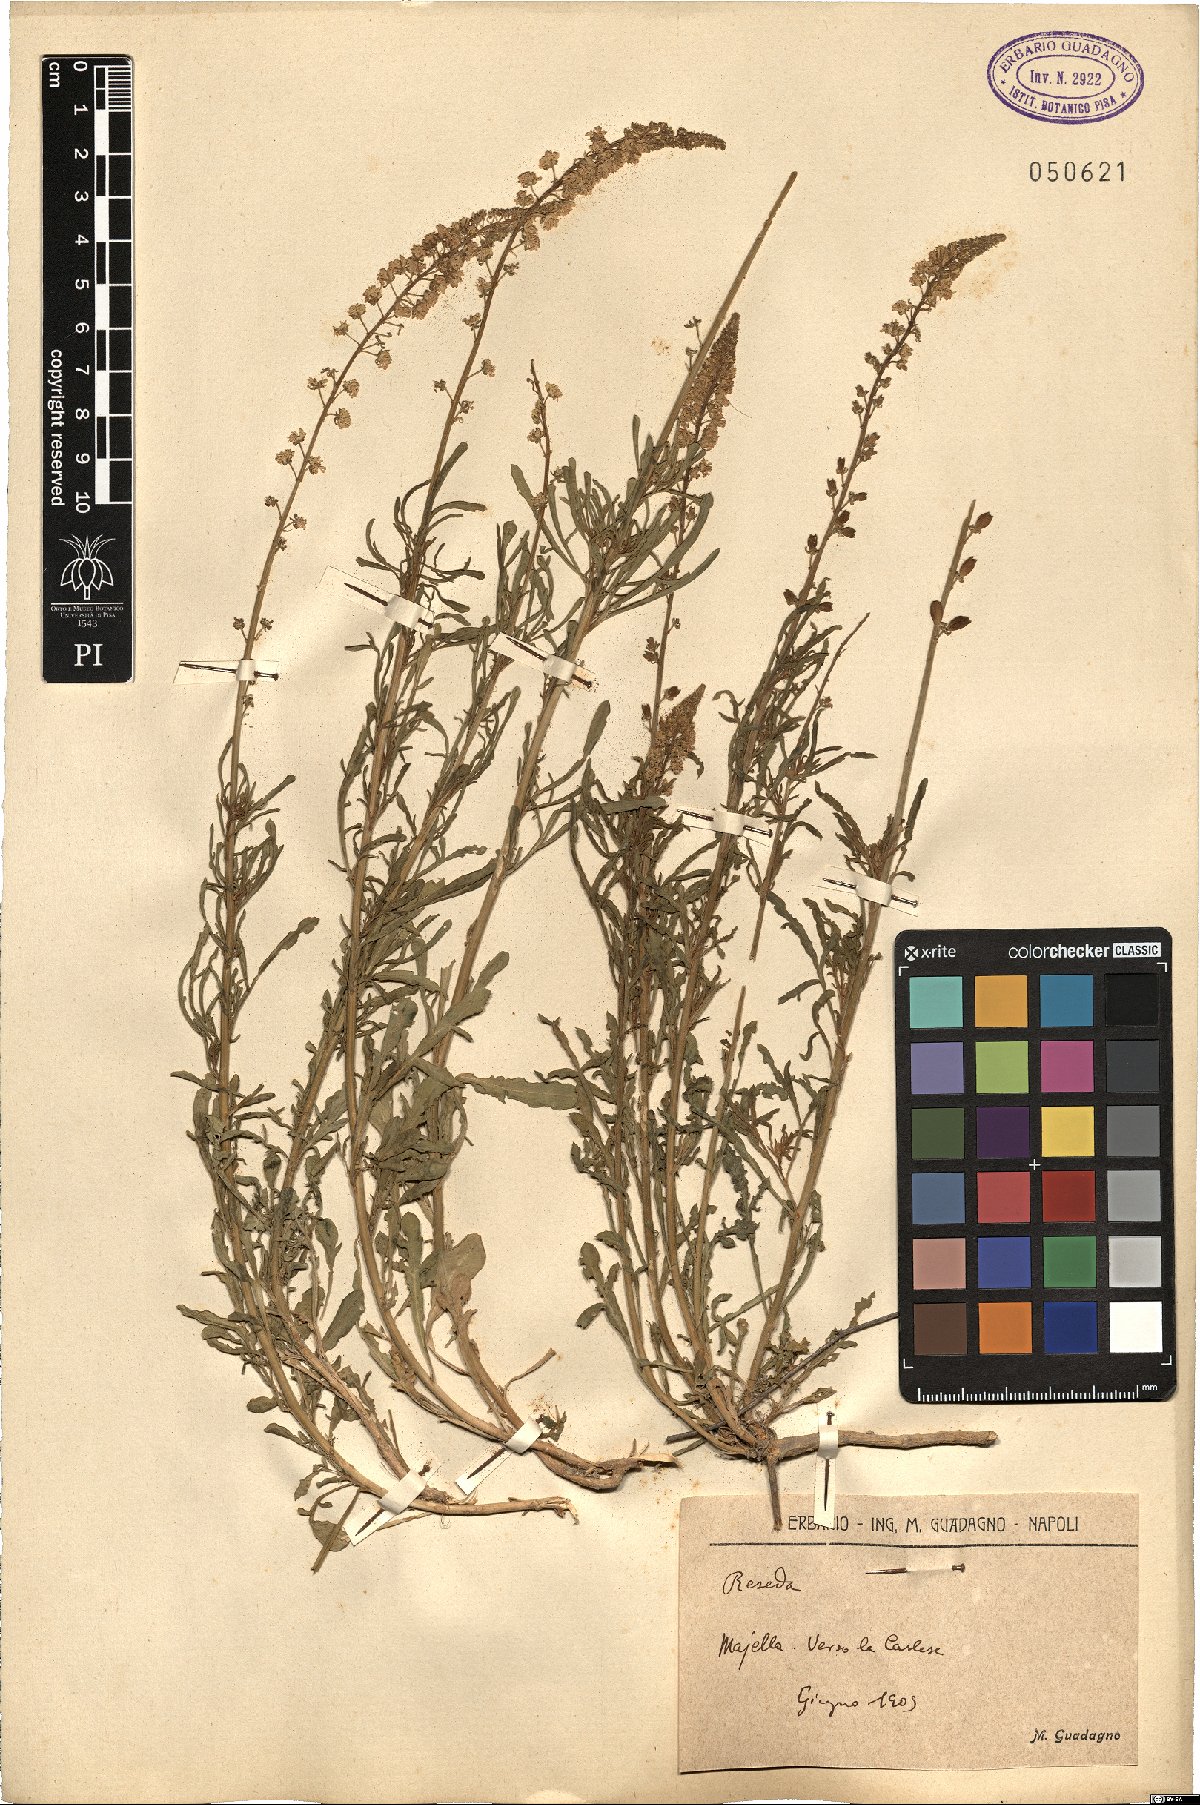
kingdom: Plantae
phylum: Tracheophyta
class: Magnoliopsida
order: Brassicales
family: Resedaceae
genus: Reseda
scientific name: Reseda
